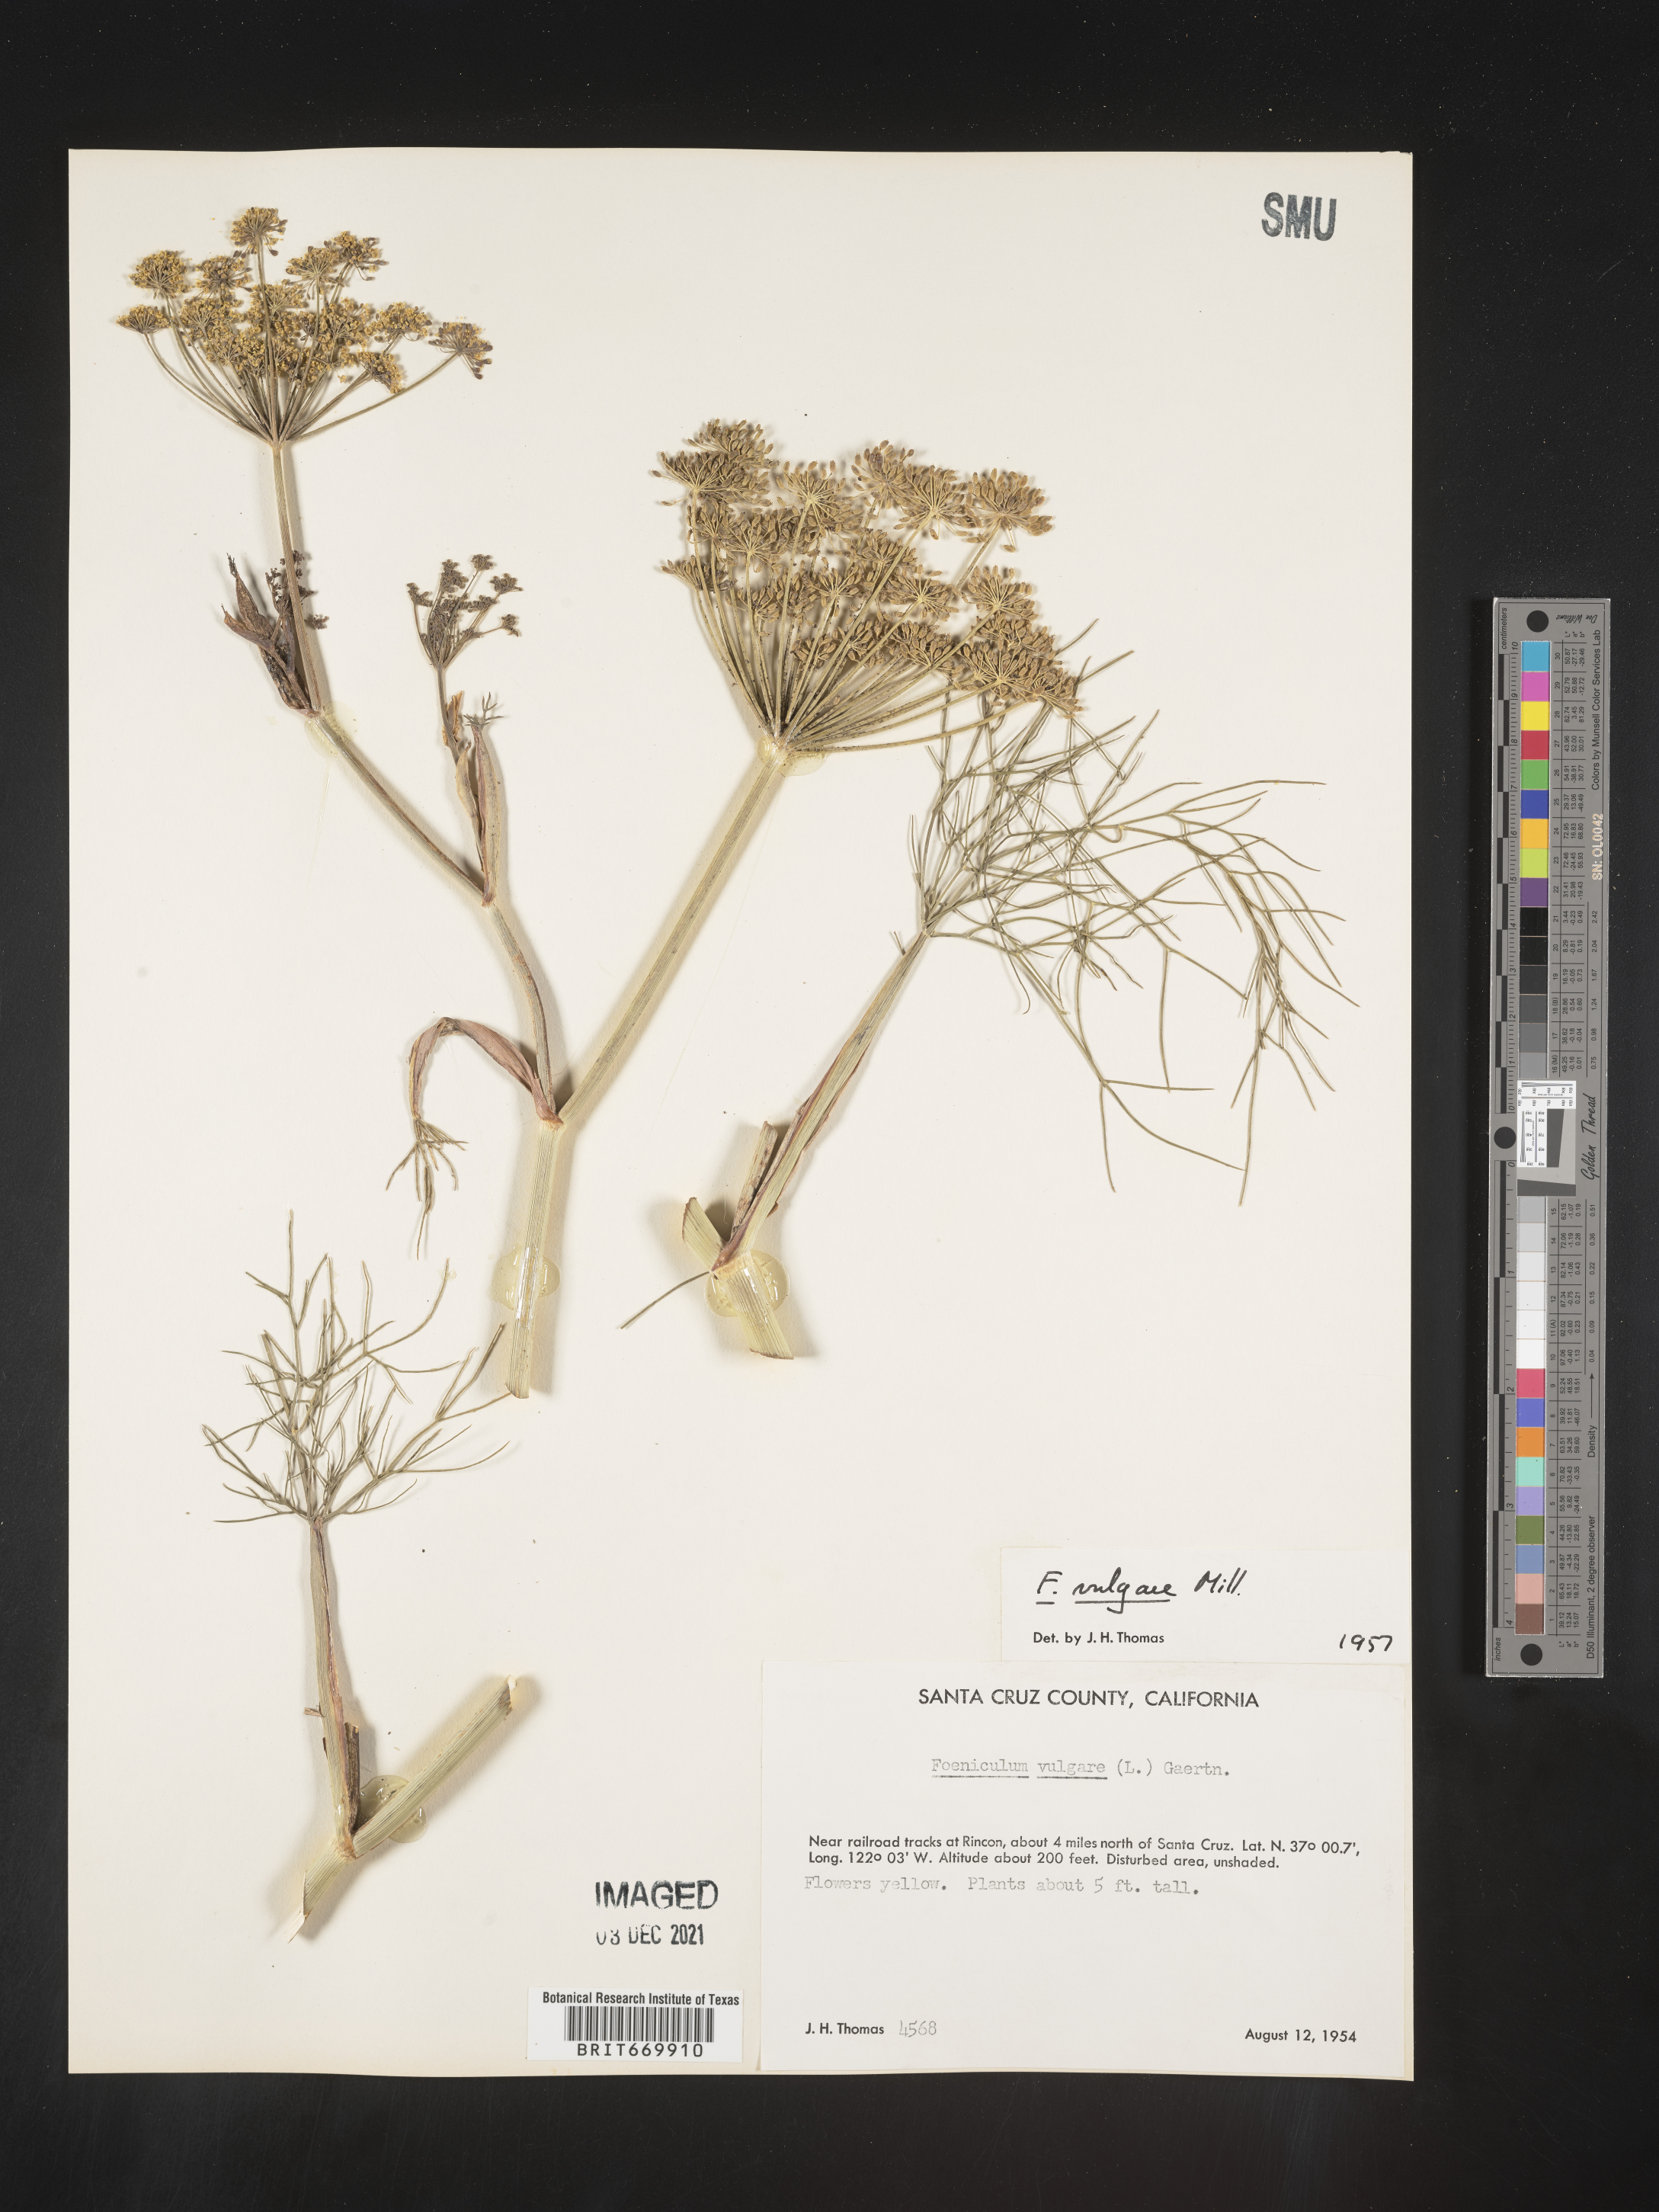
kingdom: Plantae
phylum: Tracheophyta
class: Magnoliopsida
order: Apiales
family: Apiaceae
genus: Foeniculum
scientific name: Foeniculum
